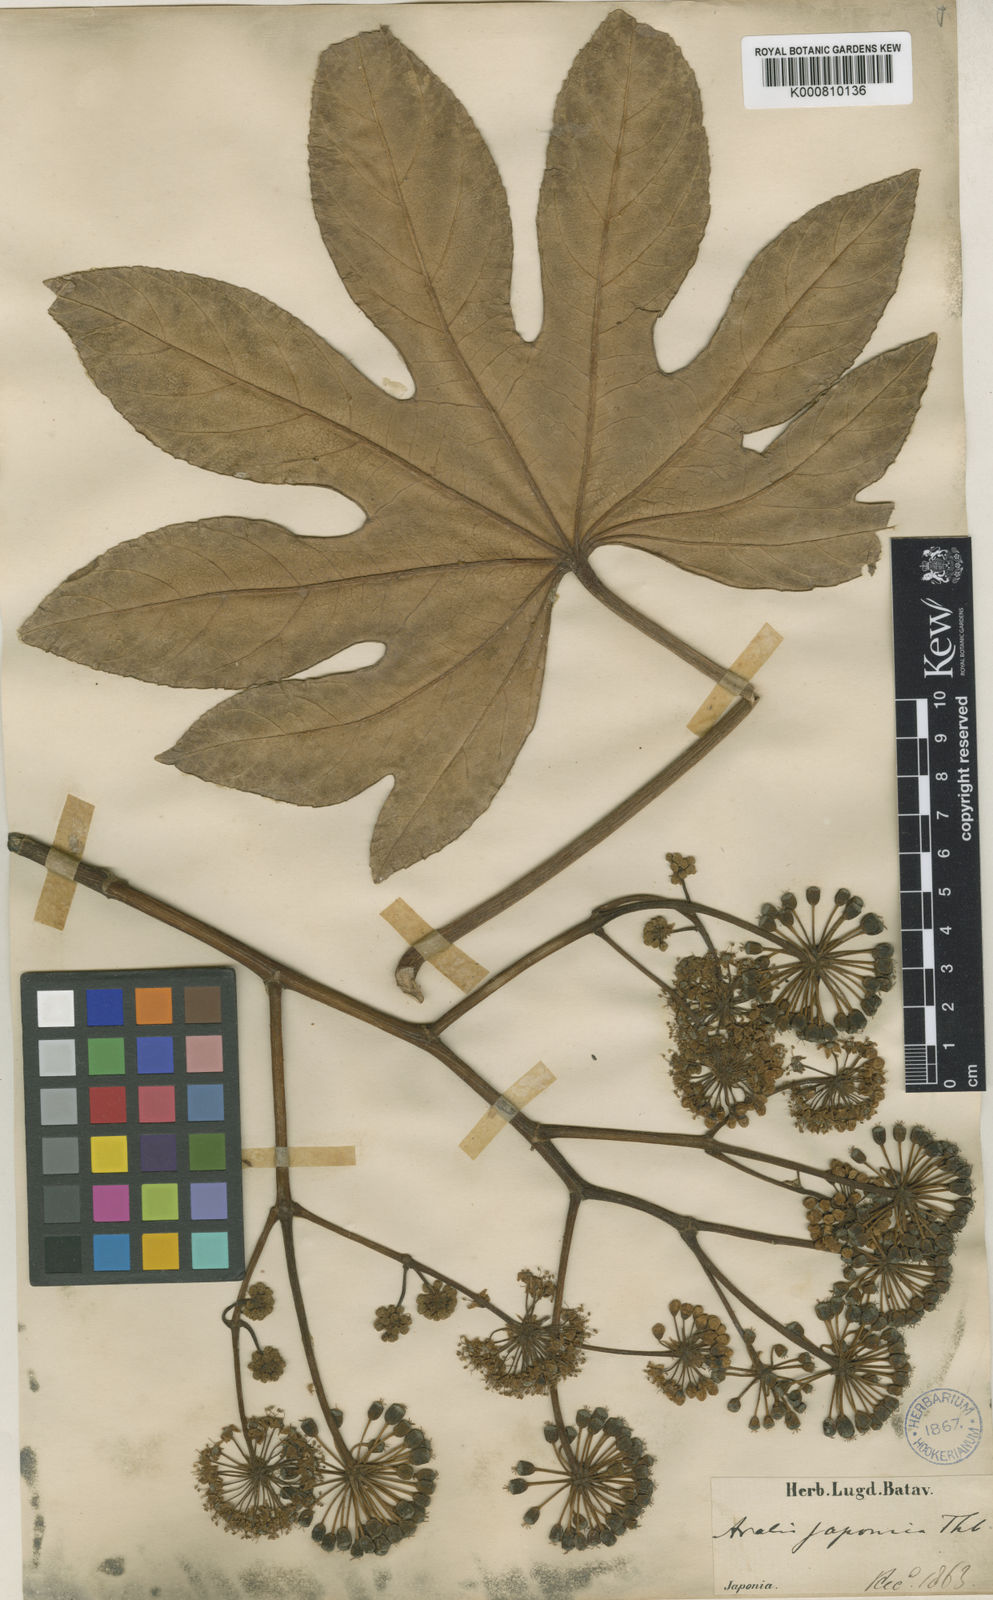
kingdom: Plantae
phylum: Tracheophyta
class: Magnoliopsida
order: Apiales
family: Araliaceae
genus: Fatsia
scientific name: Fatsia japonica
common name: Fatsia
